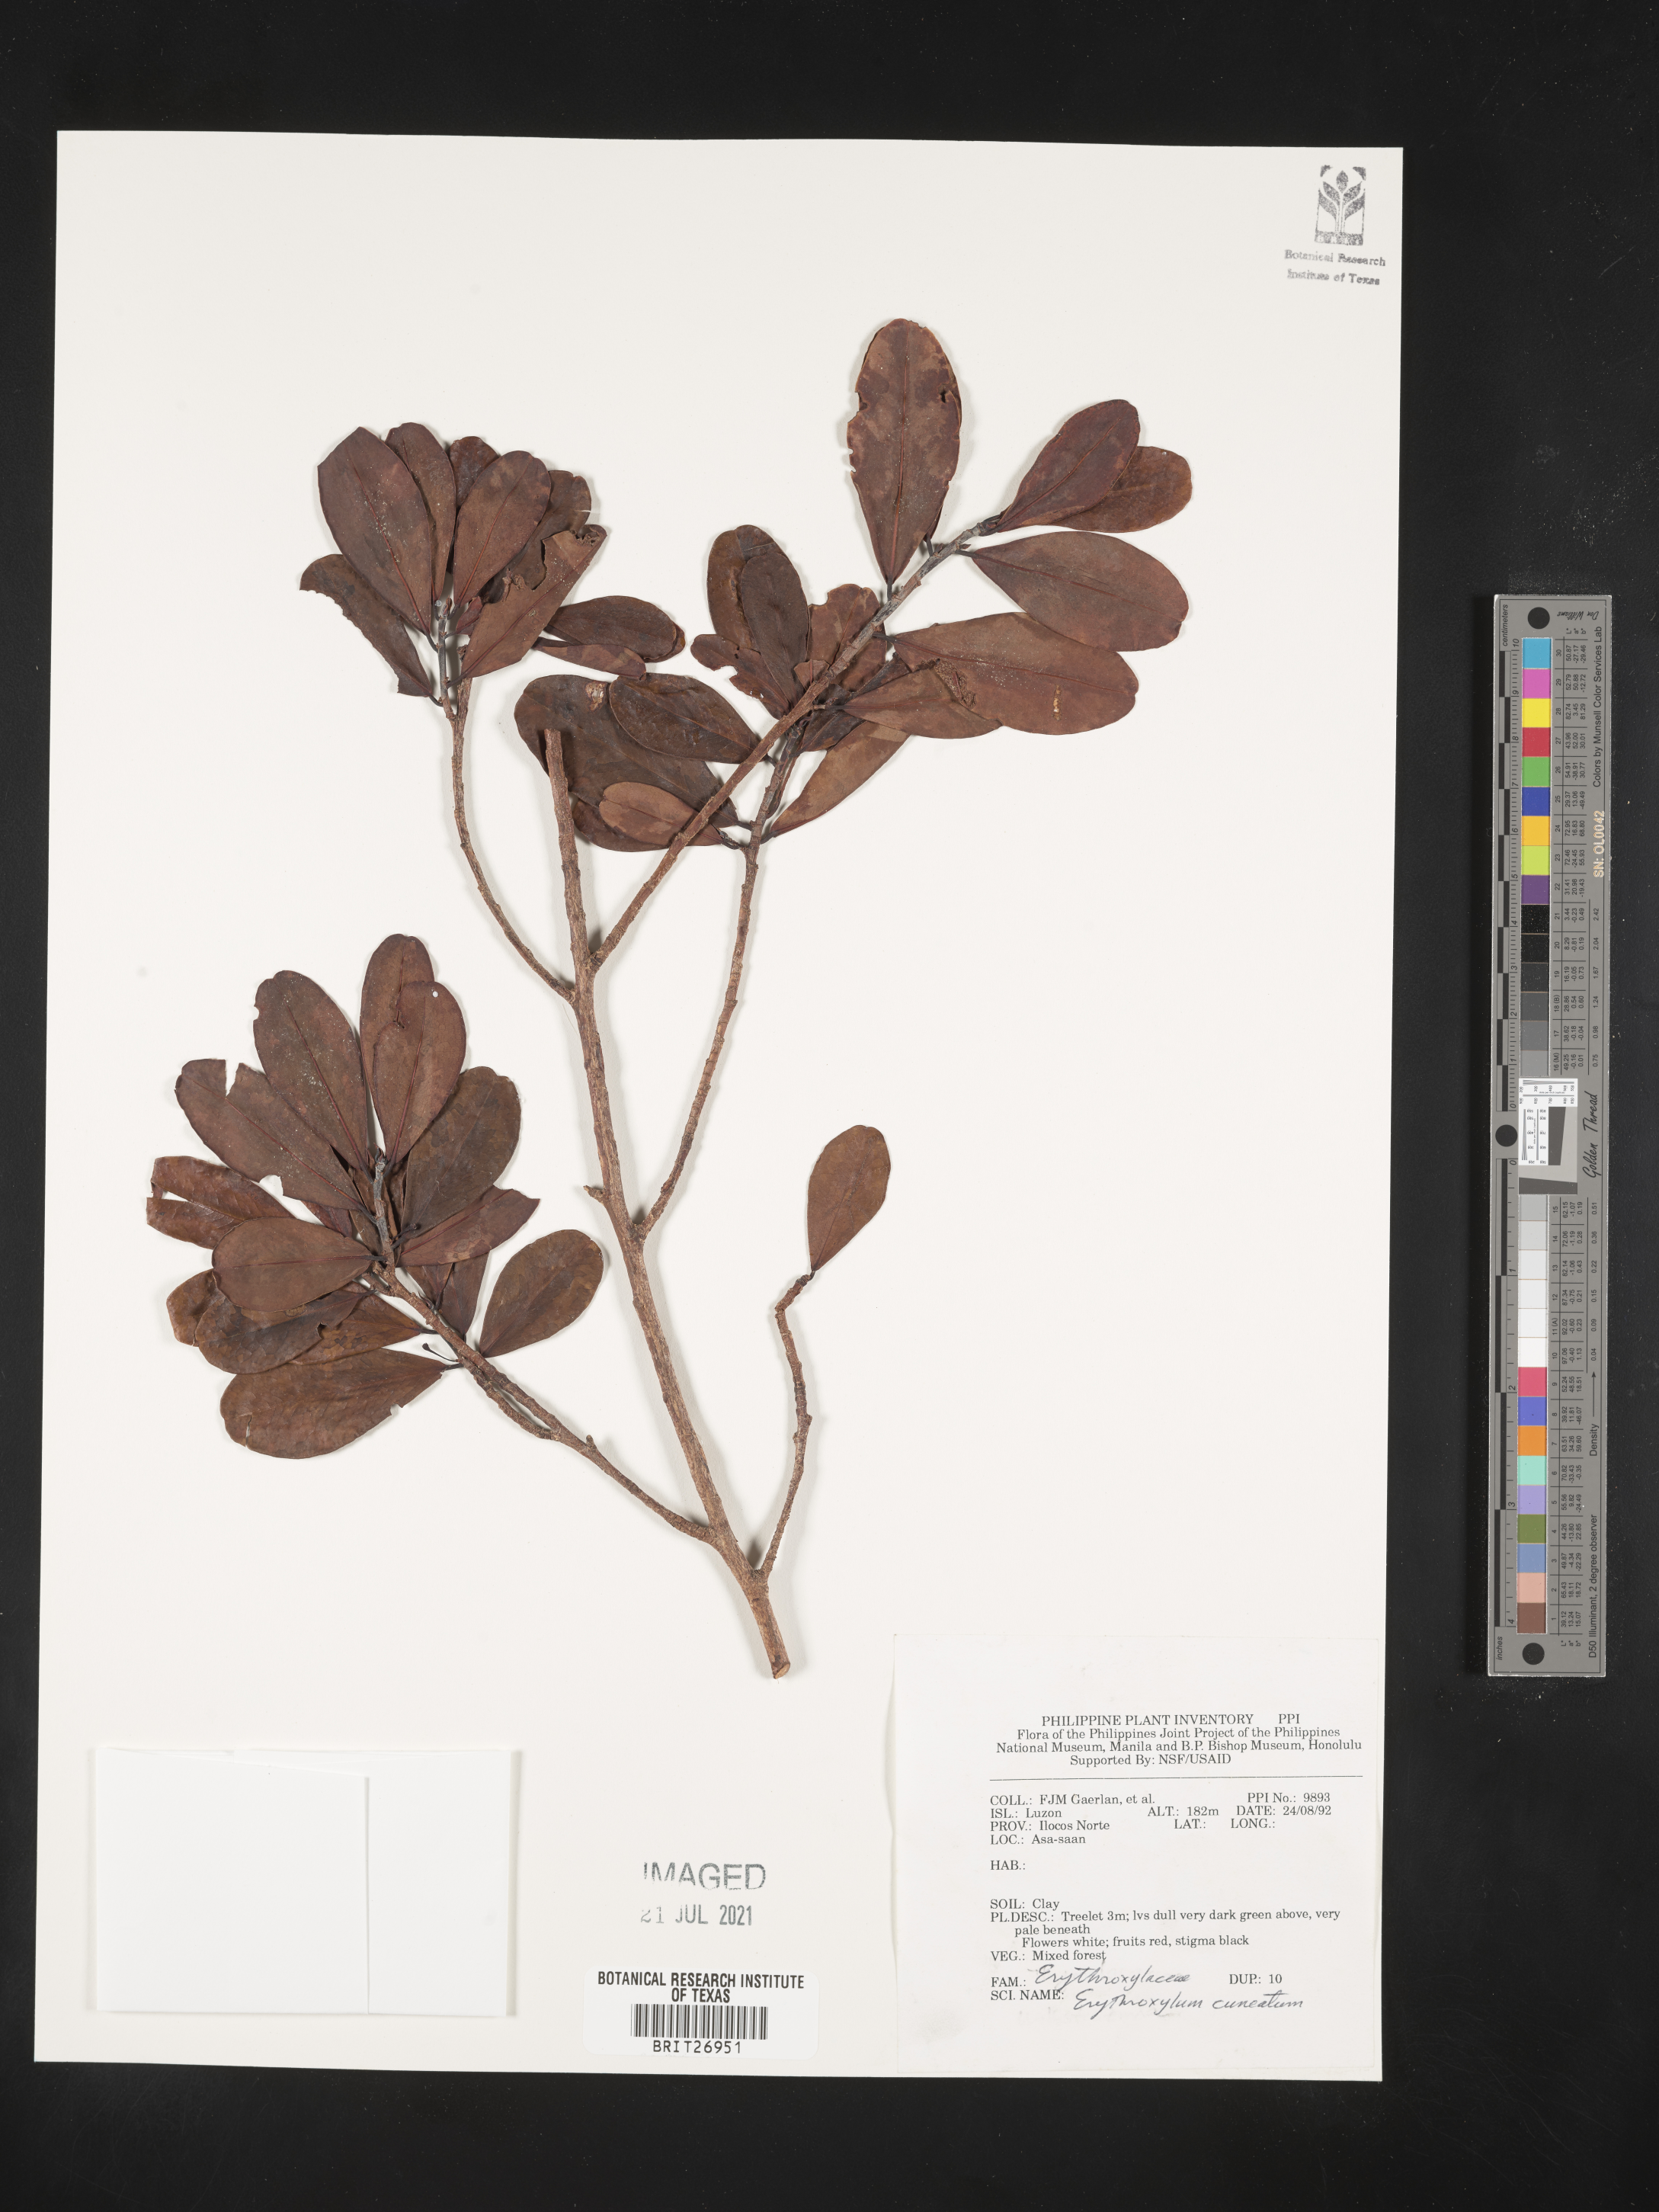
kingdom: Plantae
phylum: Tracheophyta
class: Magnoliopsida
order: Malpighiales
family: Erythroxylaceae
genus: Erythroxylum
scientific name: Erythroxylum cuneatum
